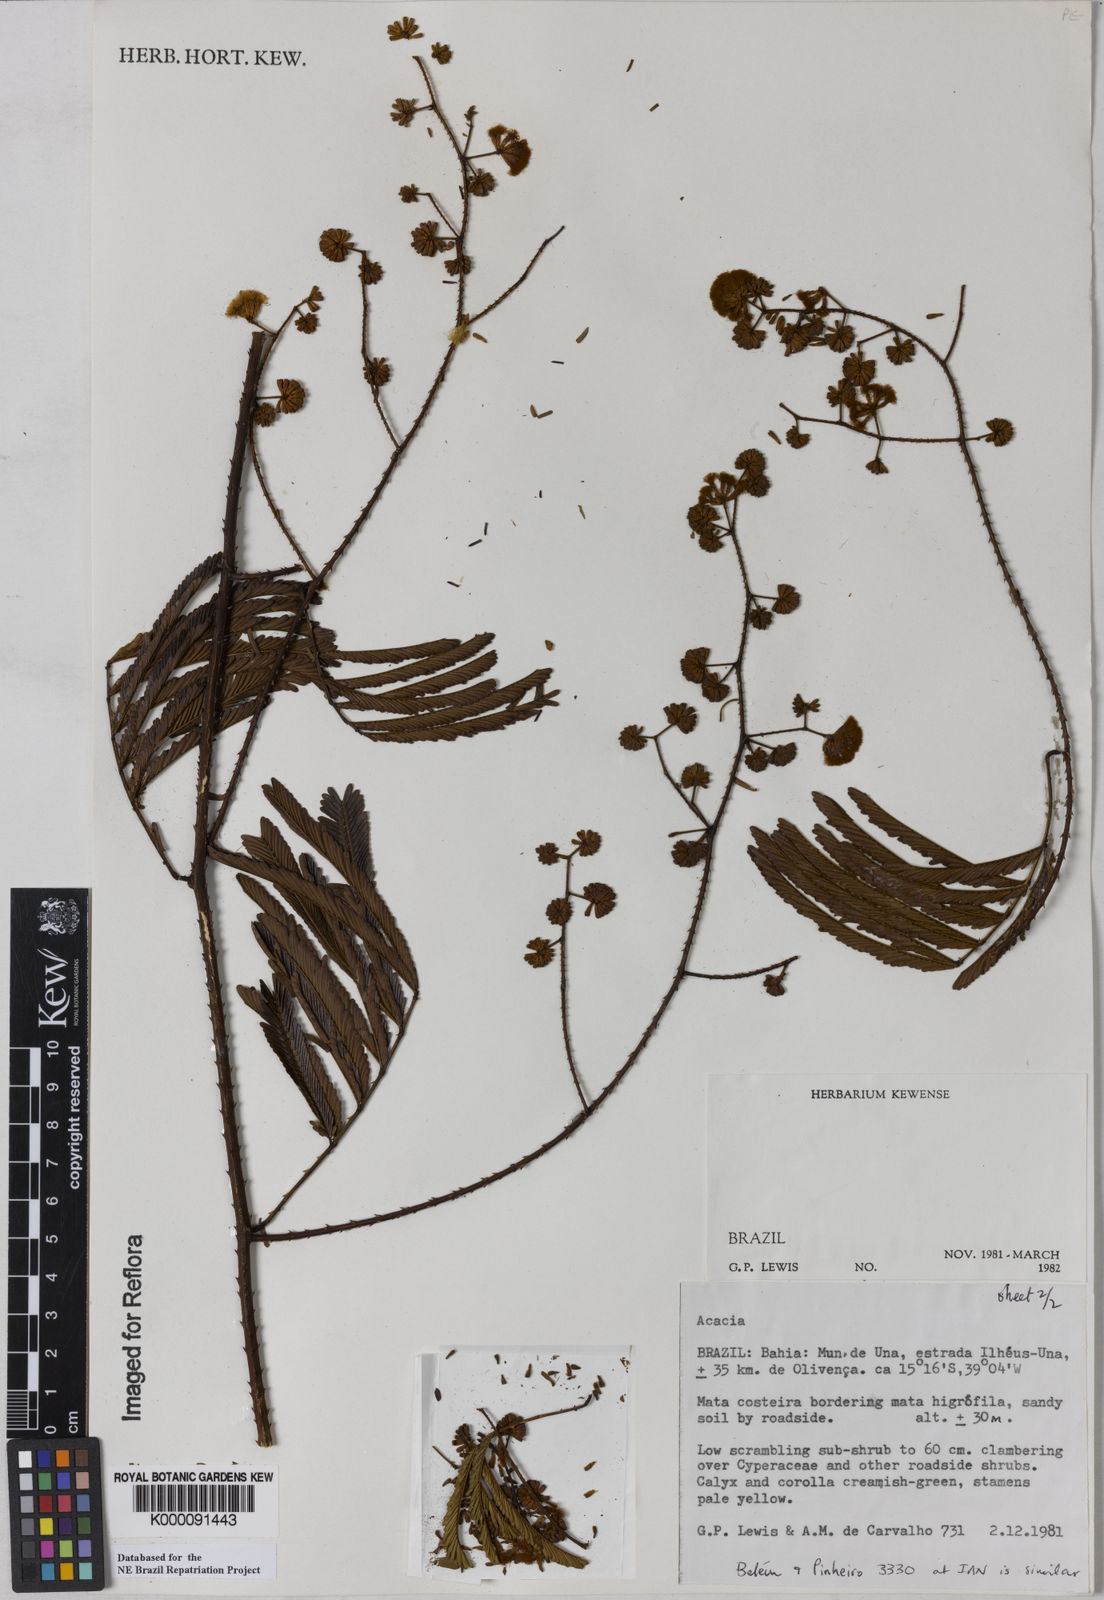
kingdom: Plantae
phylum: Tracheophyta
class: Magnoliopsida
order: Fabales
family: Fabaceae
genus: Acacia
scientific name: Acacia
